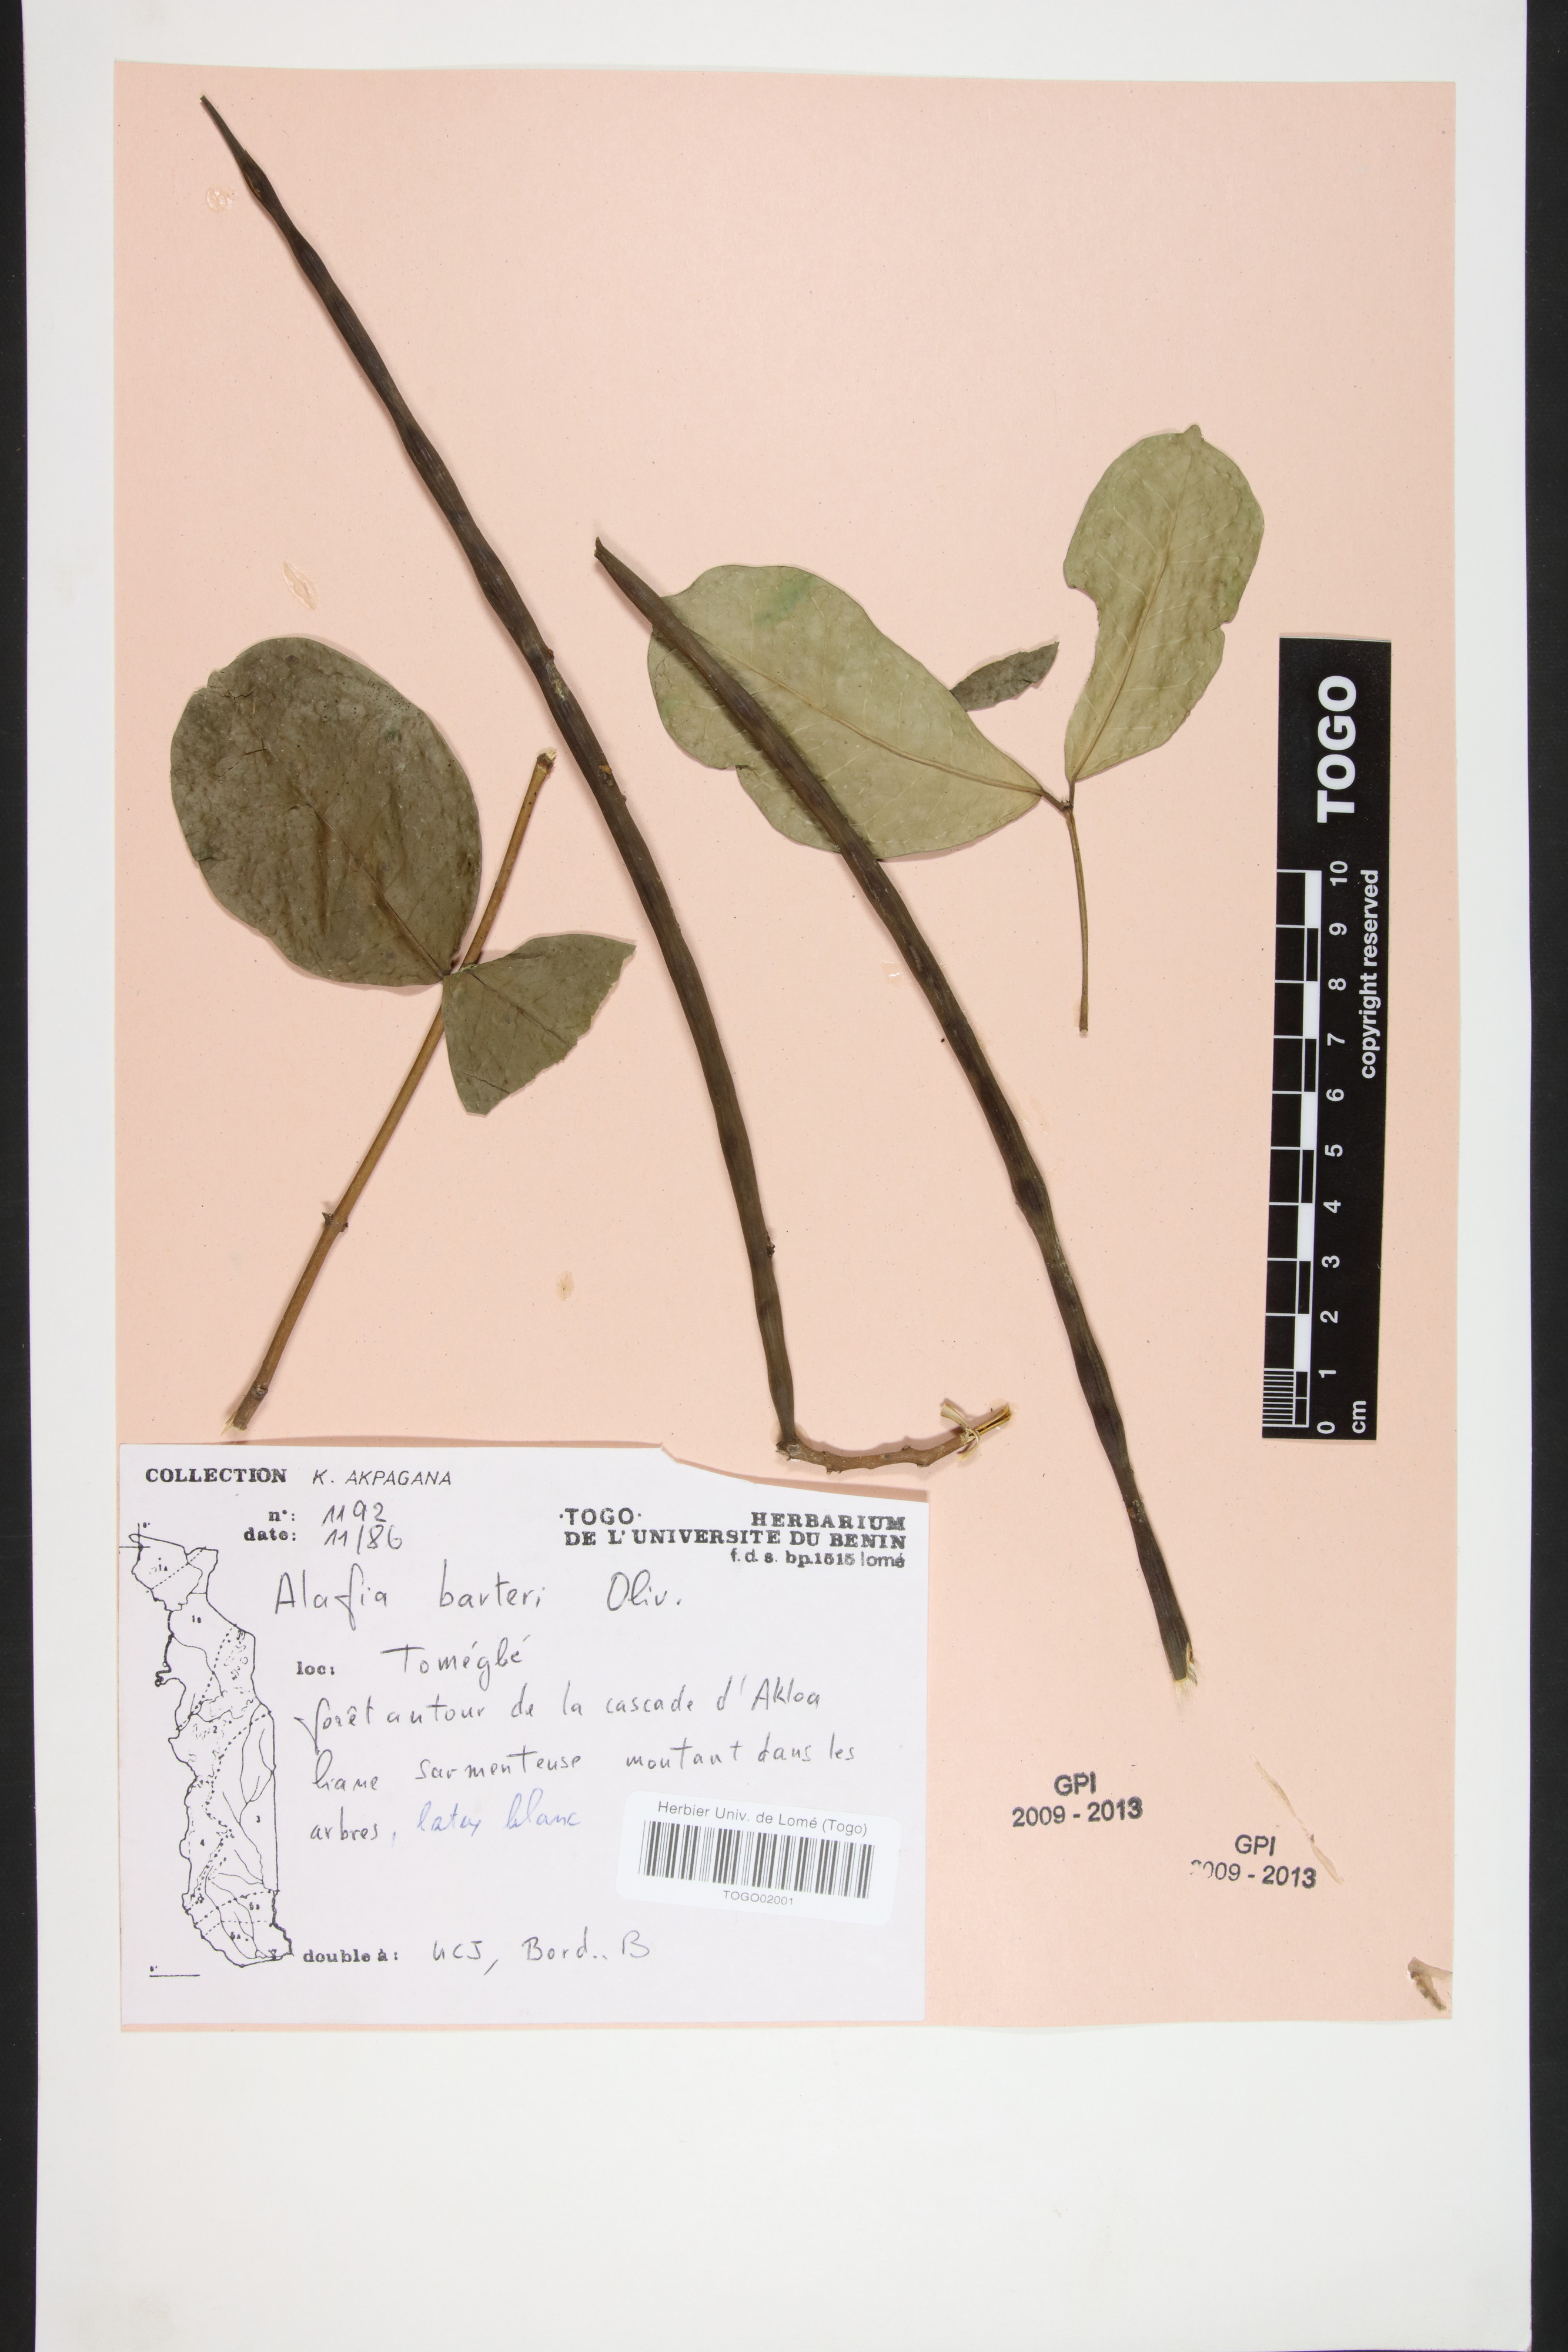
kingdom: Plantae
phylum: Tracheophyta
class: Magnoliopsida
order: Gentianales
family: Apocynaceae
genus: Alafia
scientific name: Alafia barteri
